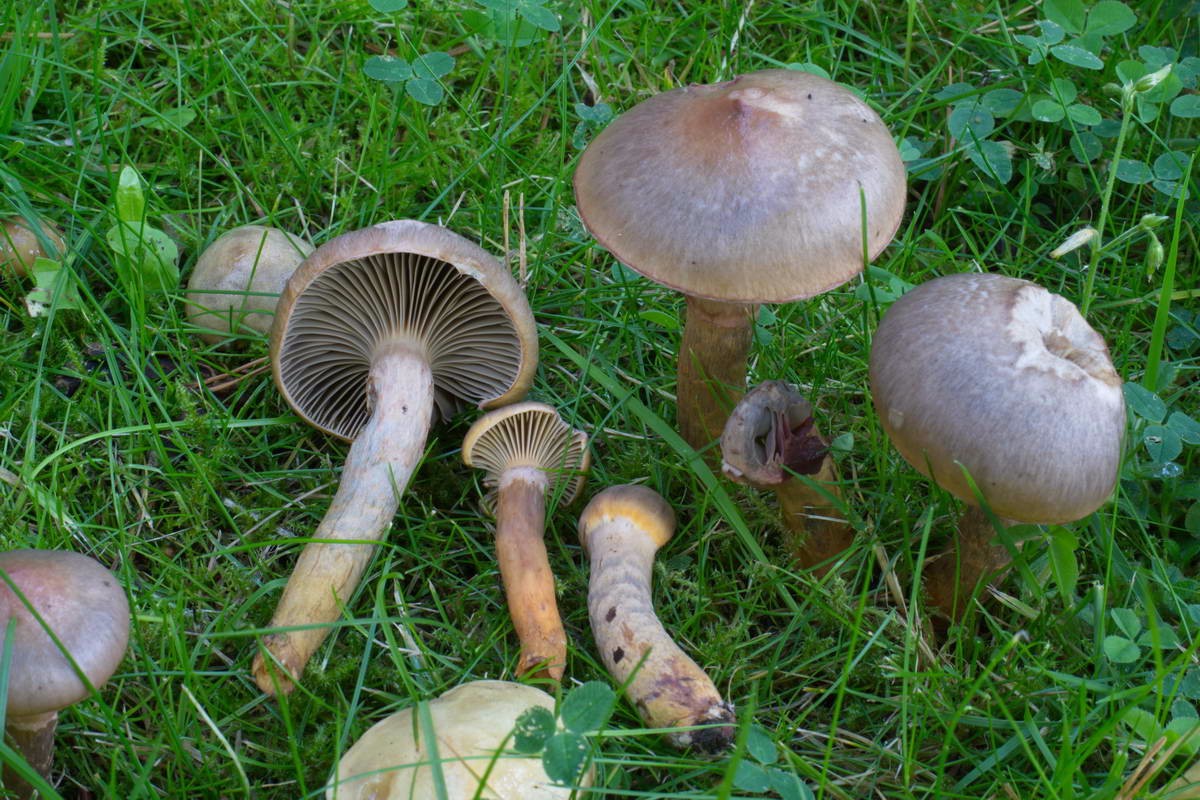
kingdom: Fungi
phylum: Basidiomycota
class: Agaricomycetes
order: Boletales
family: Gomphidiaceae
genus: Chroogomphus
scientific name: Chroogomphus rutilus
